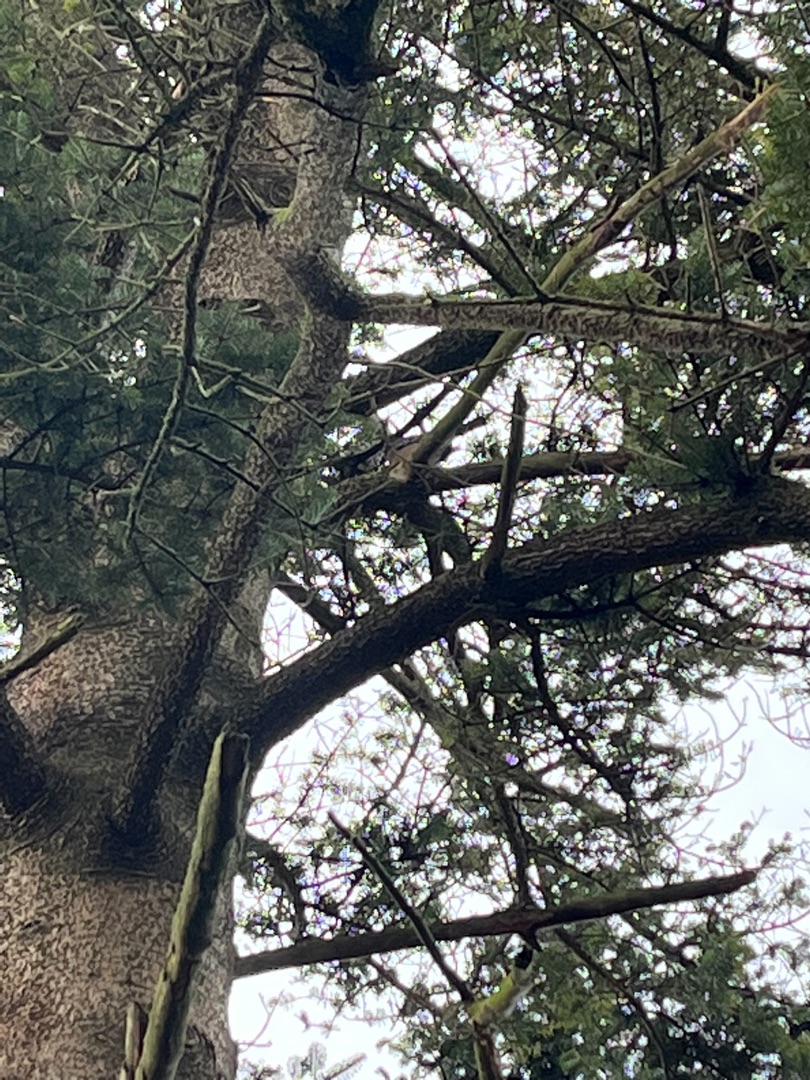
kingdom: Animalia
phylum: Chordata
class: Aves
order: Passeriformes
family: Corvidae
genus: Garrulus
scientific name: Garrulus glandarius
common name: Skovskade
